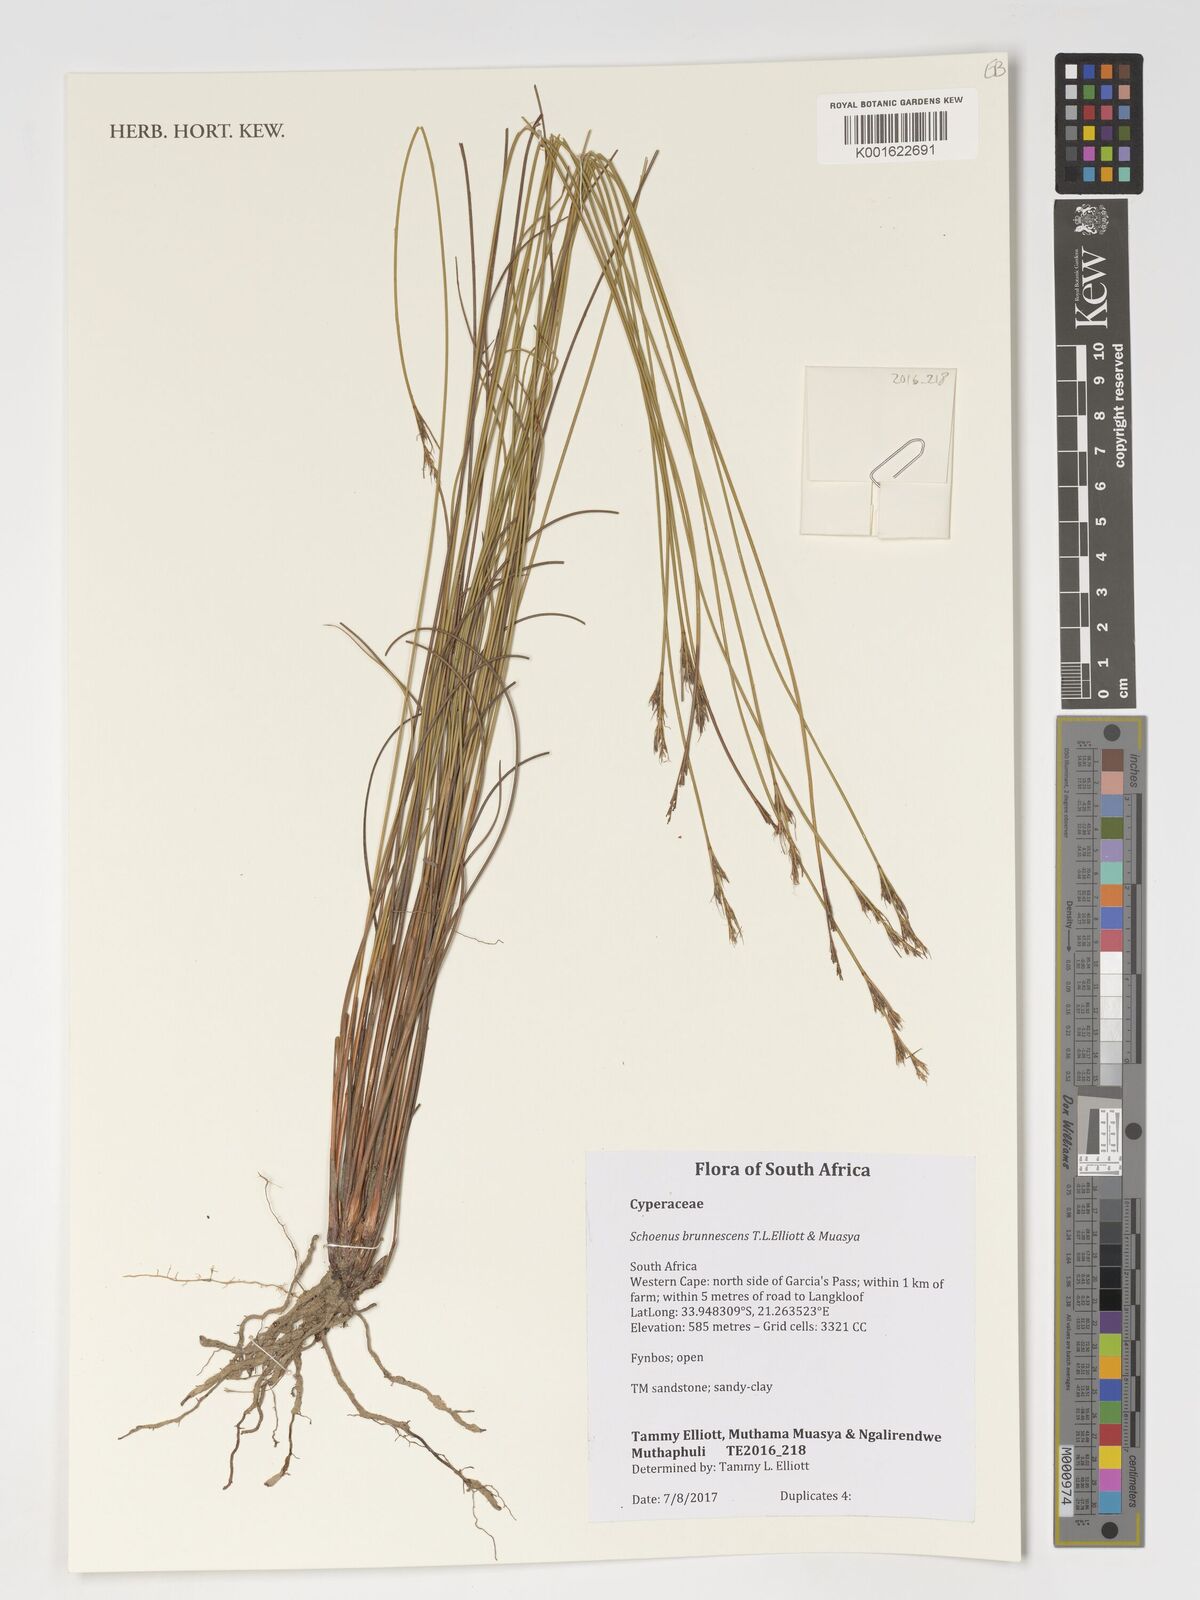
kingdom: Plantae
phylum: Tracheophyta
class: Liliopsida
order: Poales
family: Cyperaceae
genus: Schoenus
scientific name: Schoenus
